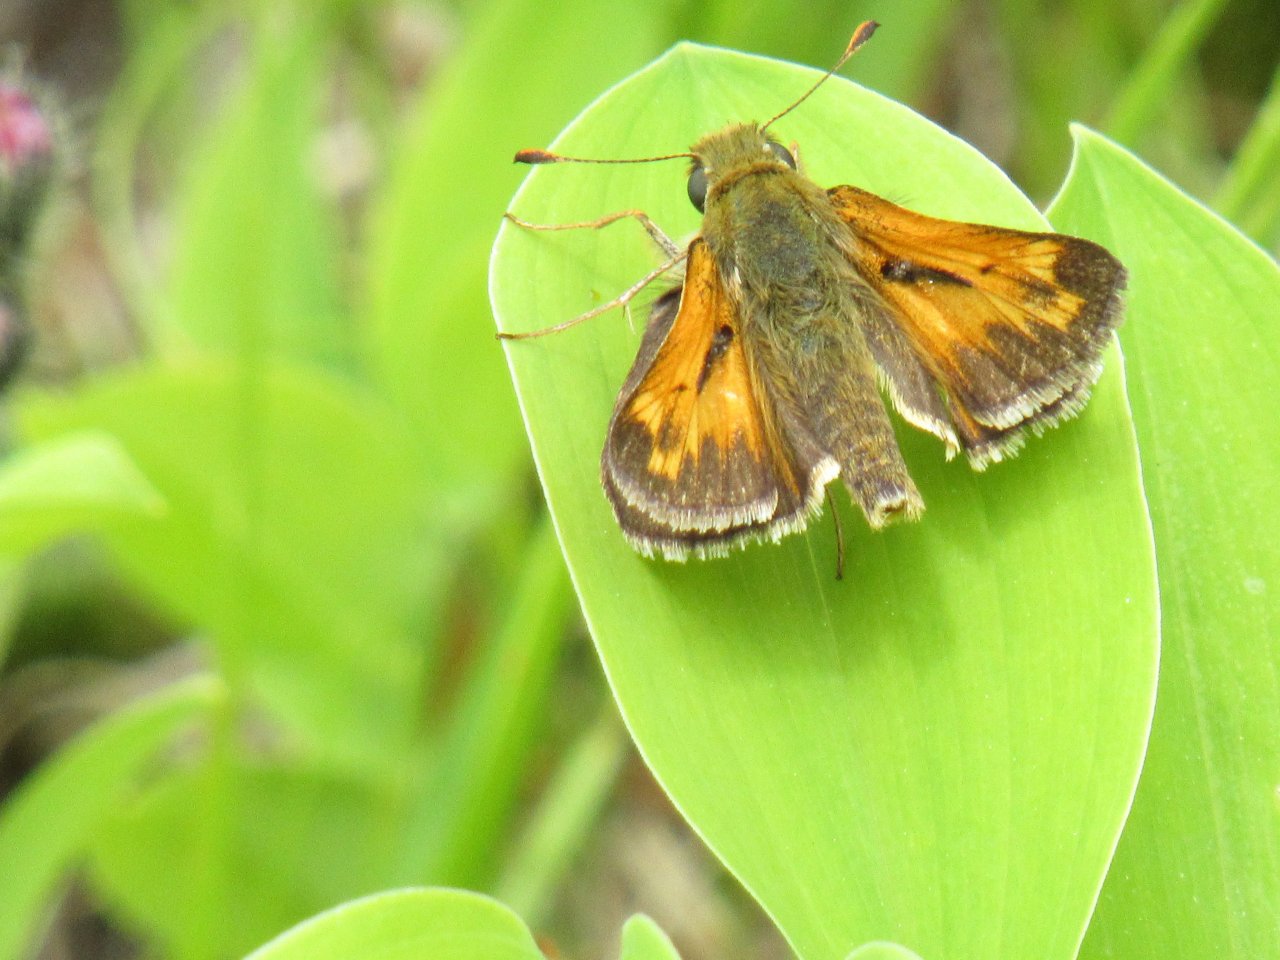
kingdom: Animalia
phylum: Arthropoda
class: Insecta
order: Lepidoptera
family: Hesperiidae
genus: Hesperia
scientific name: Hesperia sassacus
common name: Sassacus Skipper
